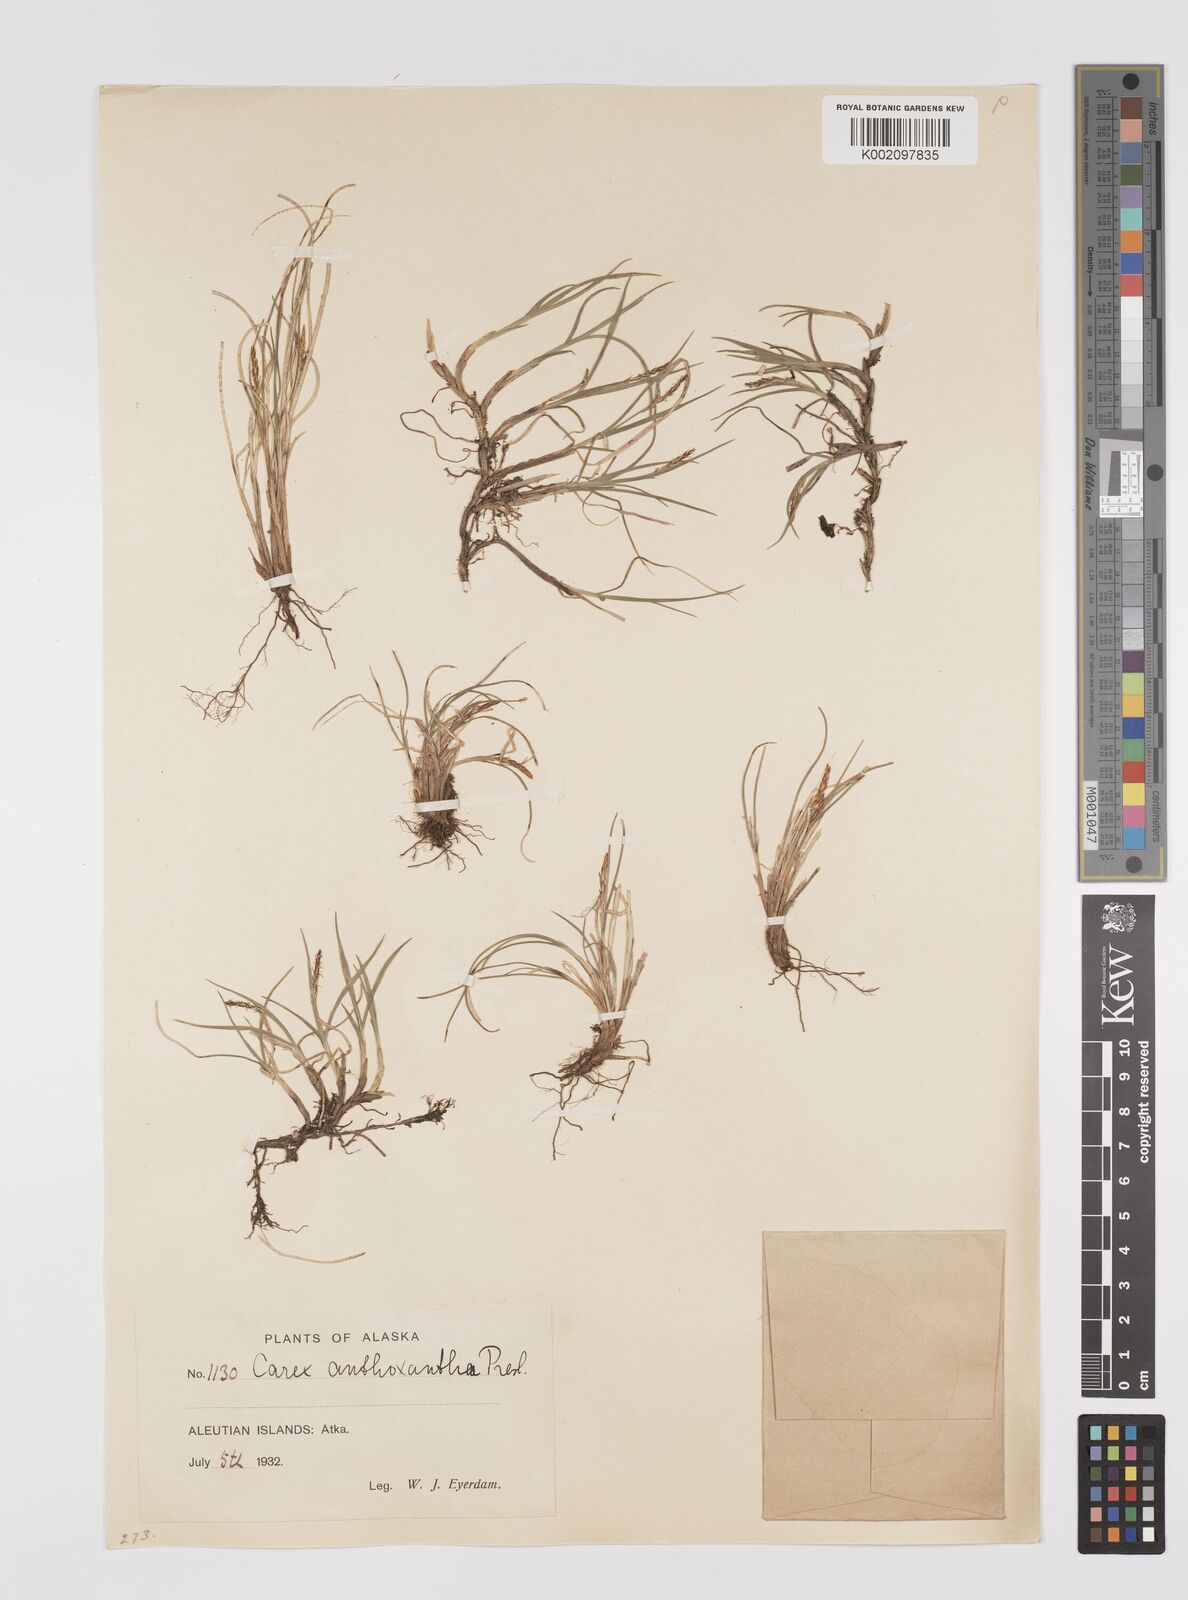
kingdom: Plantae
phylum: Tracheophyta
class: Liliopsida
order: Poales
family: Cyperaceae
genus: Carex
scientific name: Carex anthoxanthea
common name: Grassy-slope arctic sedge
